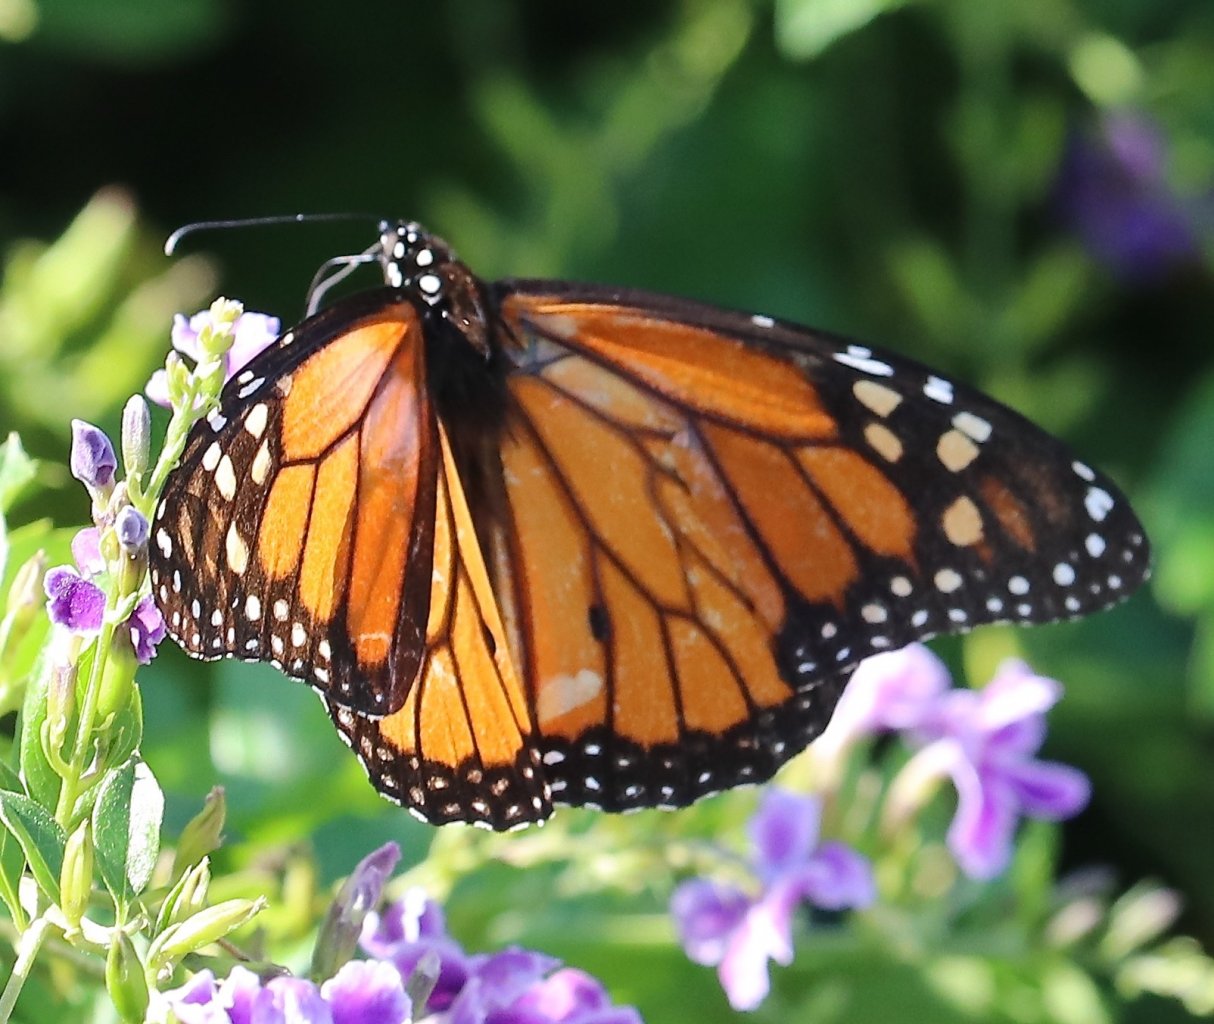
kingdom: Animalia
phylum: Arthropoda
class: Insecta
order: Lepidoptera
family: Nymphalidae
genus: Danaus
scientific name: Danaus plexippus
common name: Monarch
